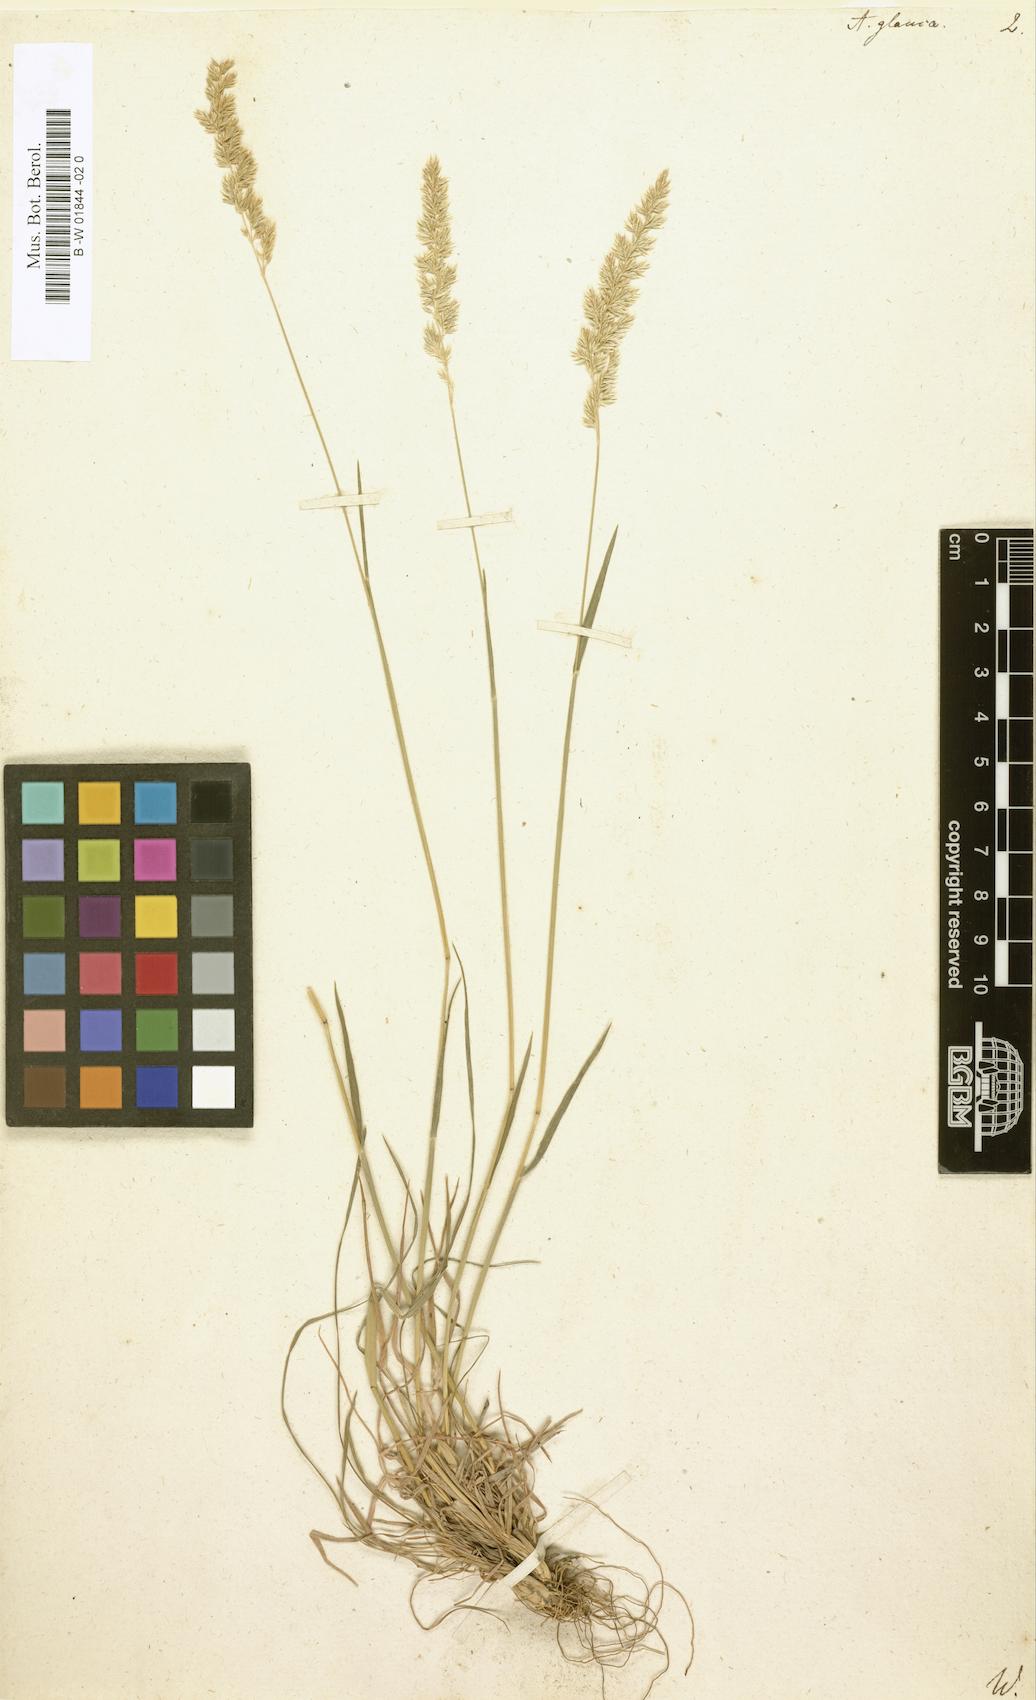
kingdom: Plantae
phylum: Tracheophyta
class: Liliopsida
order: Poales
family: Poaceae
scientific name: Poaceae
